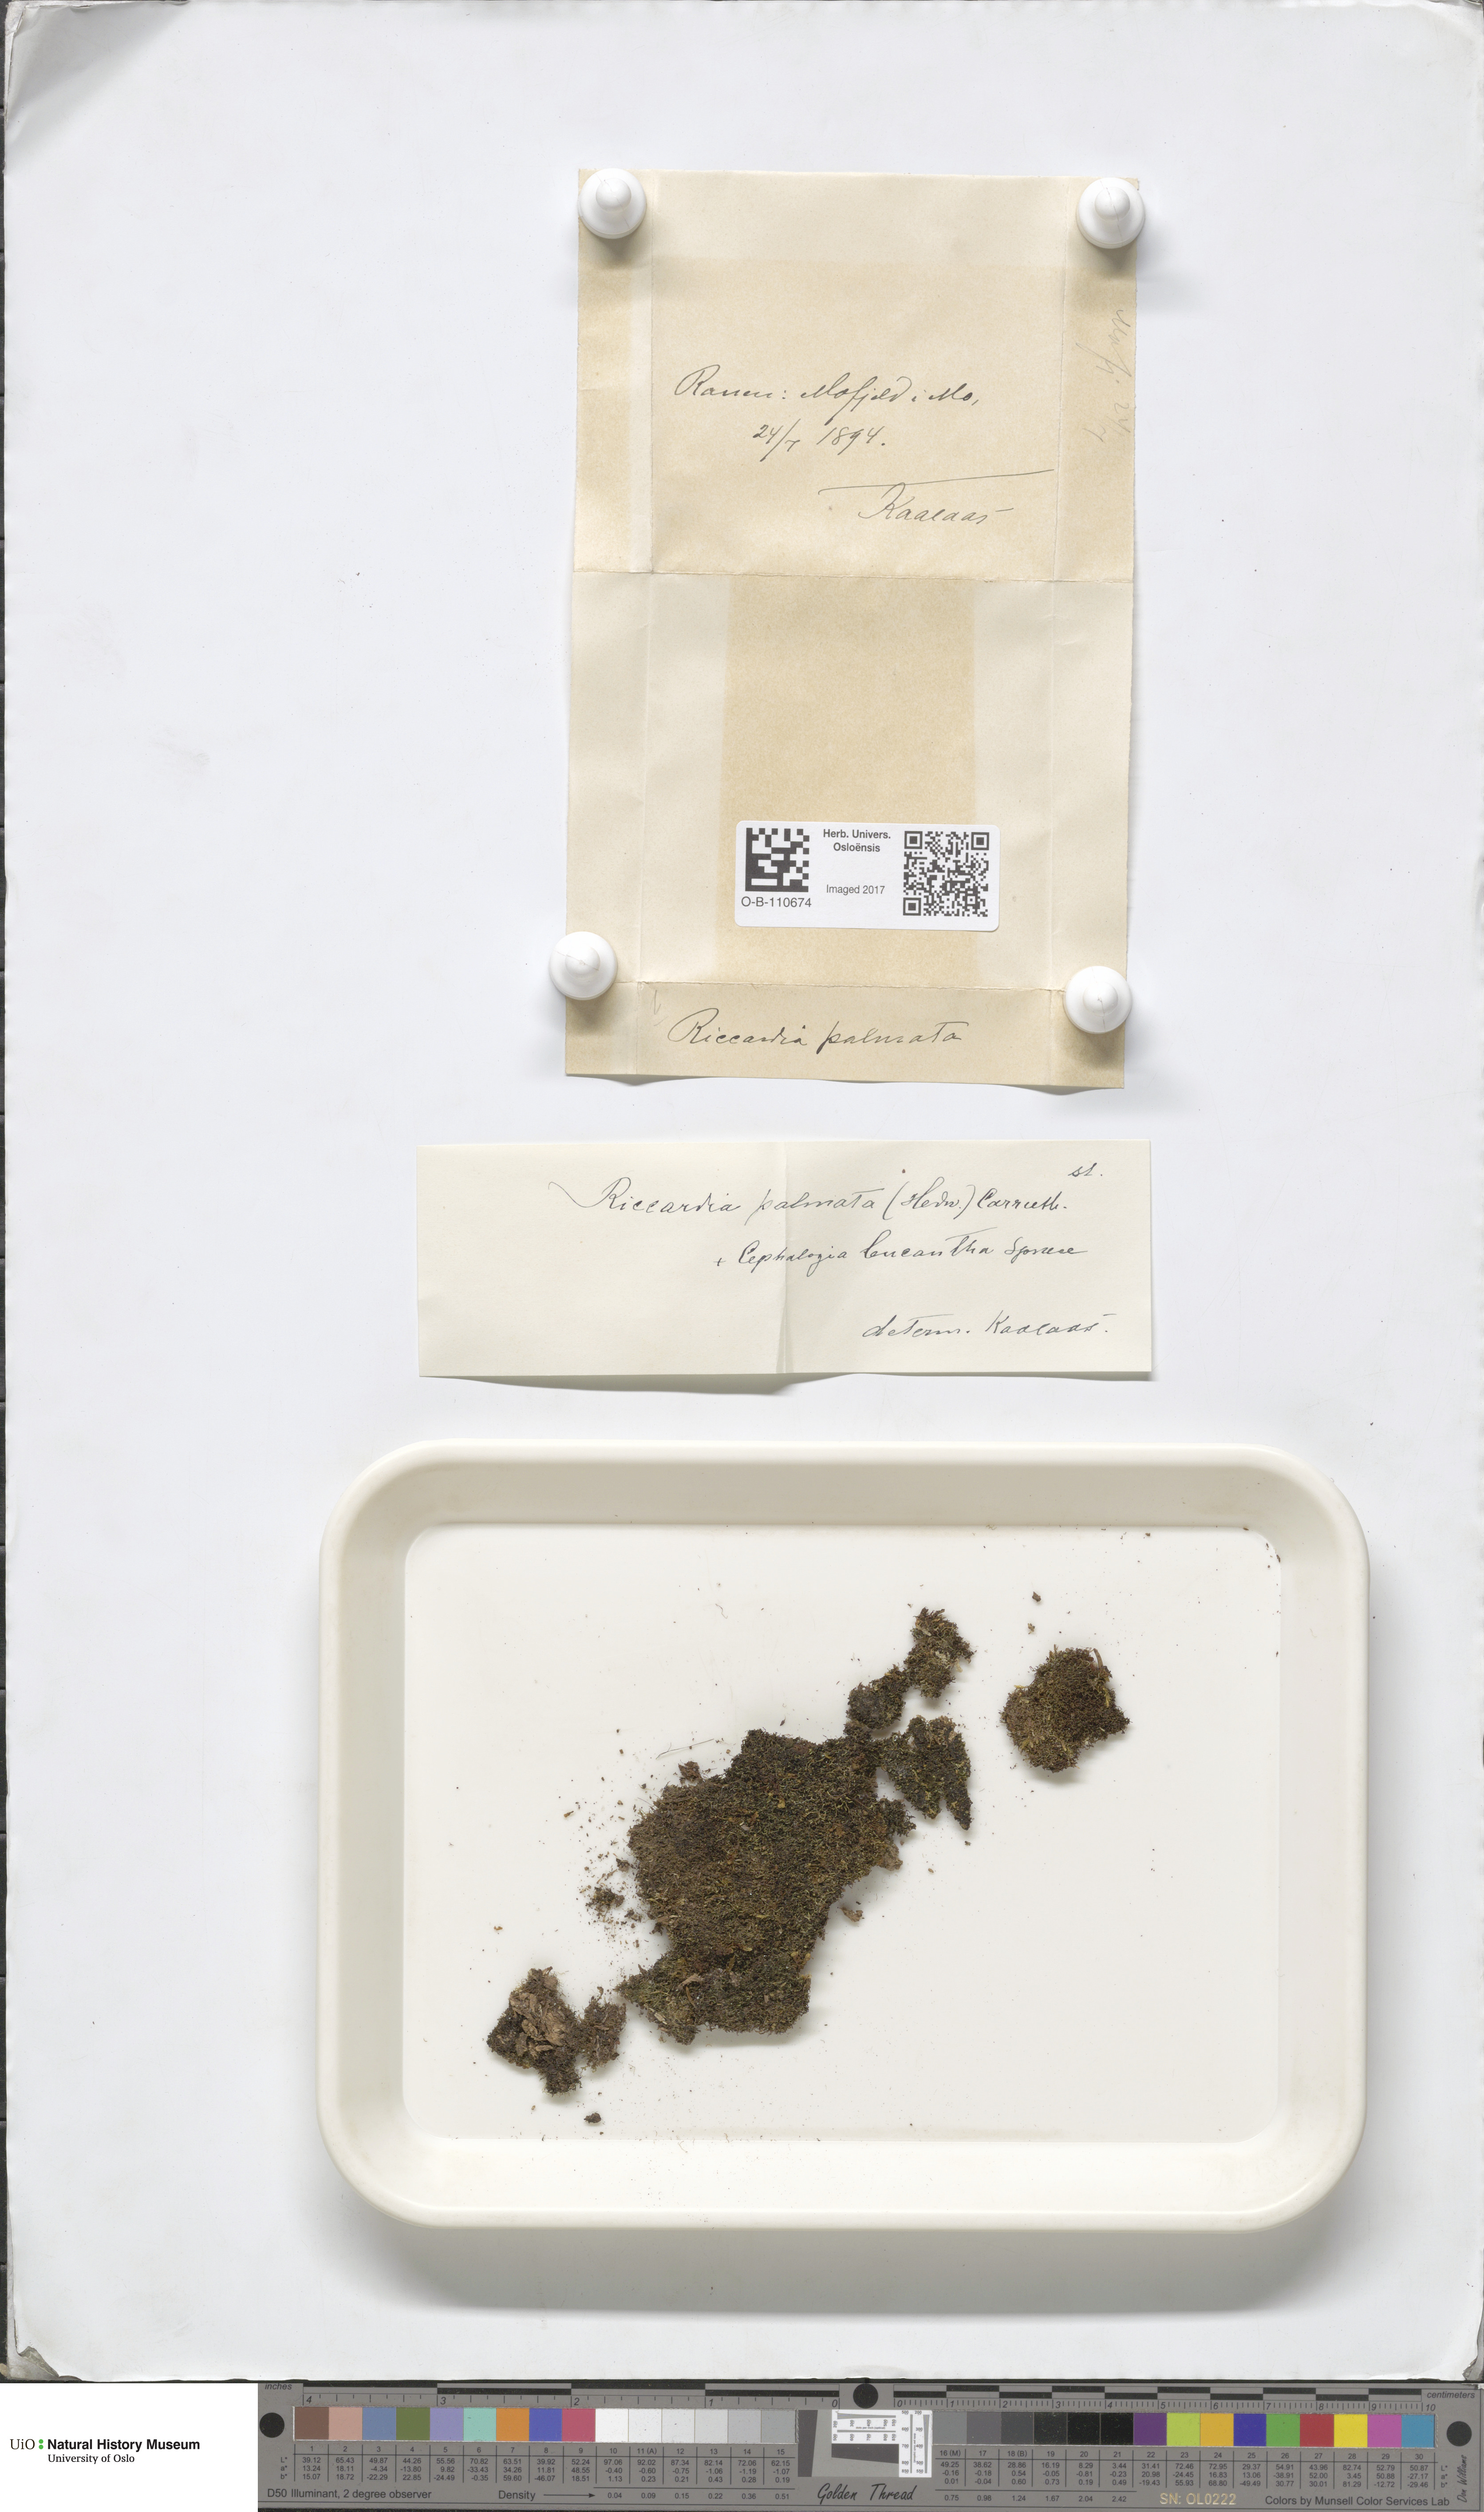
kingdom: Plantae
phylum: Marchantiophyta
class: Jungermanniopsida
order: Metzgeriales
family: Aneuraceae
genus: Riccardia
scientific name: Riccardia palmata
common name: Palmate germanderwort
